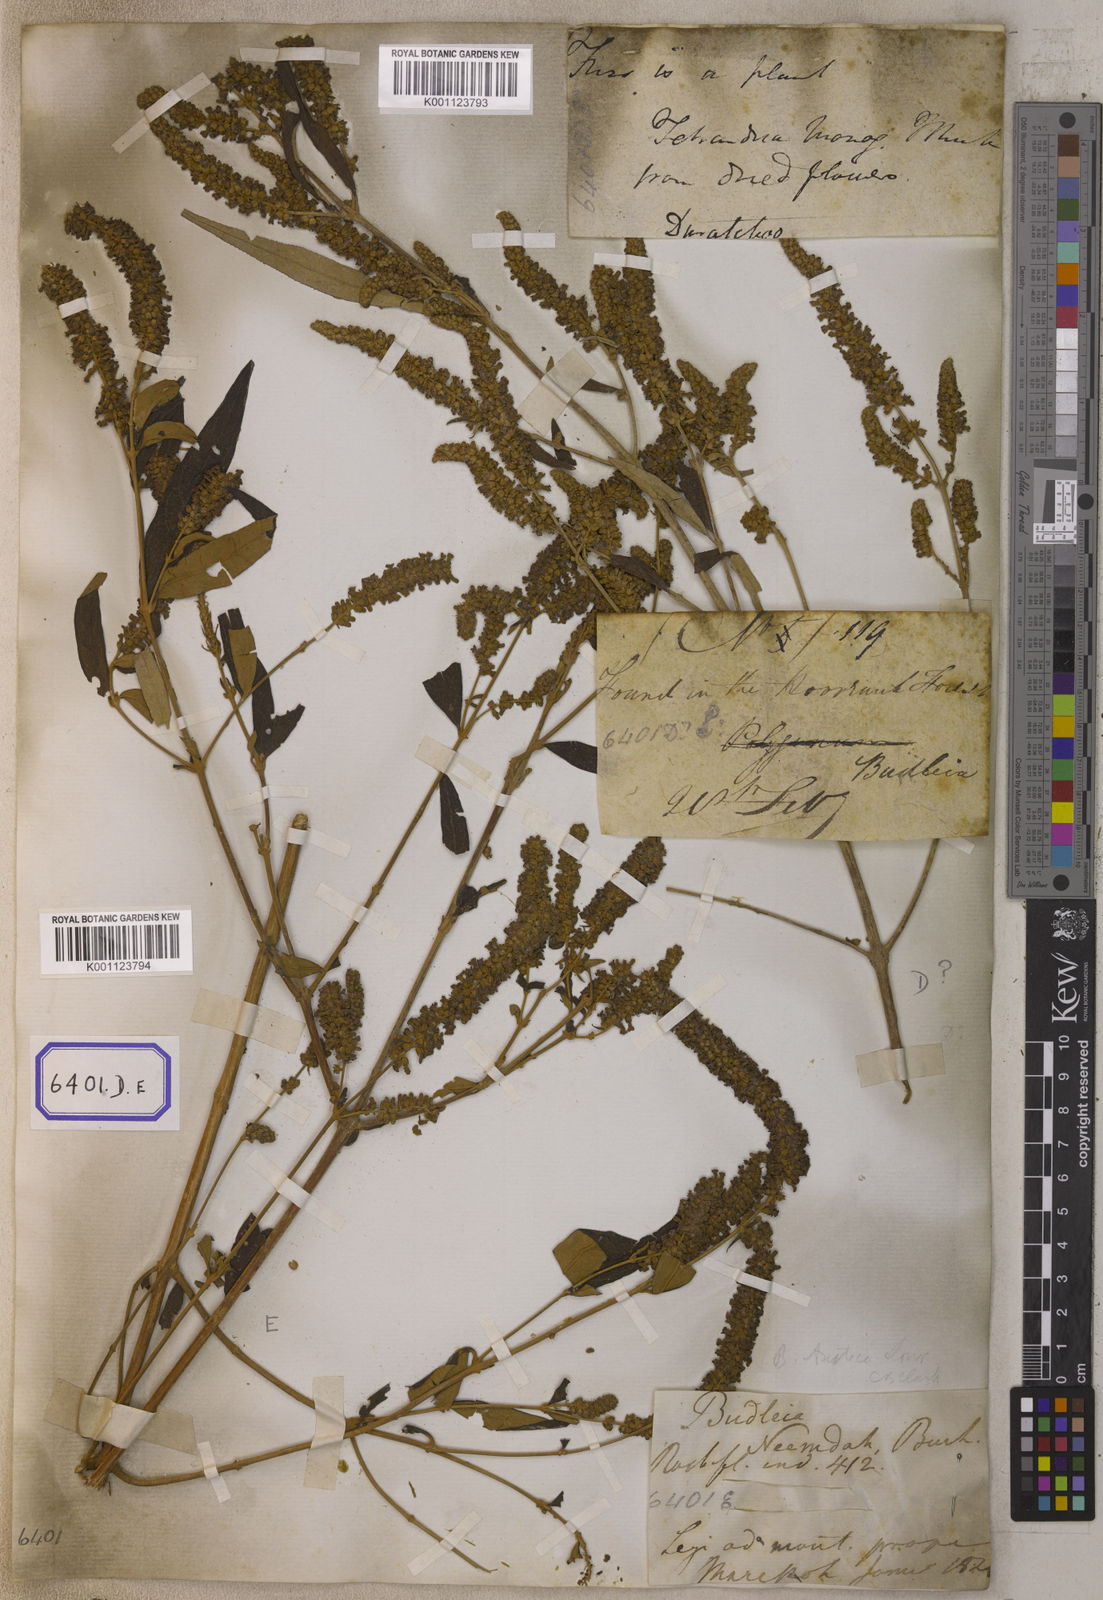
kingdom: Plantae
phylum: Tracheophyta
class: Magnoliopsida
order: Lamiales
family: Scrophulariaceae
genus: Buddleja
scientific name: Buddleja
